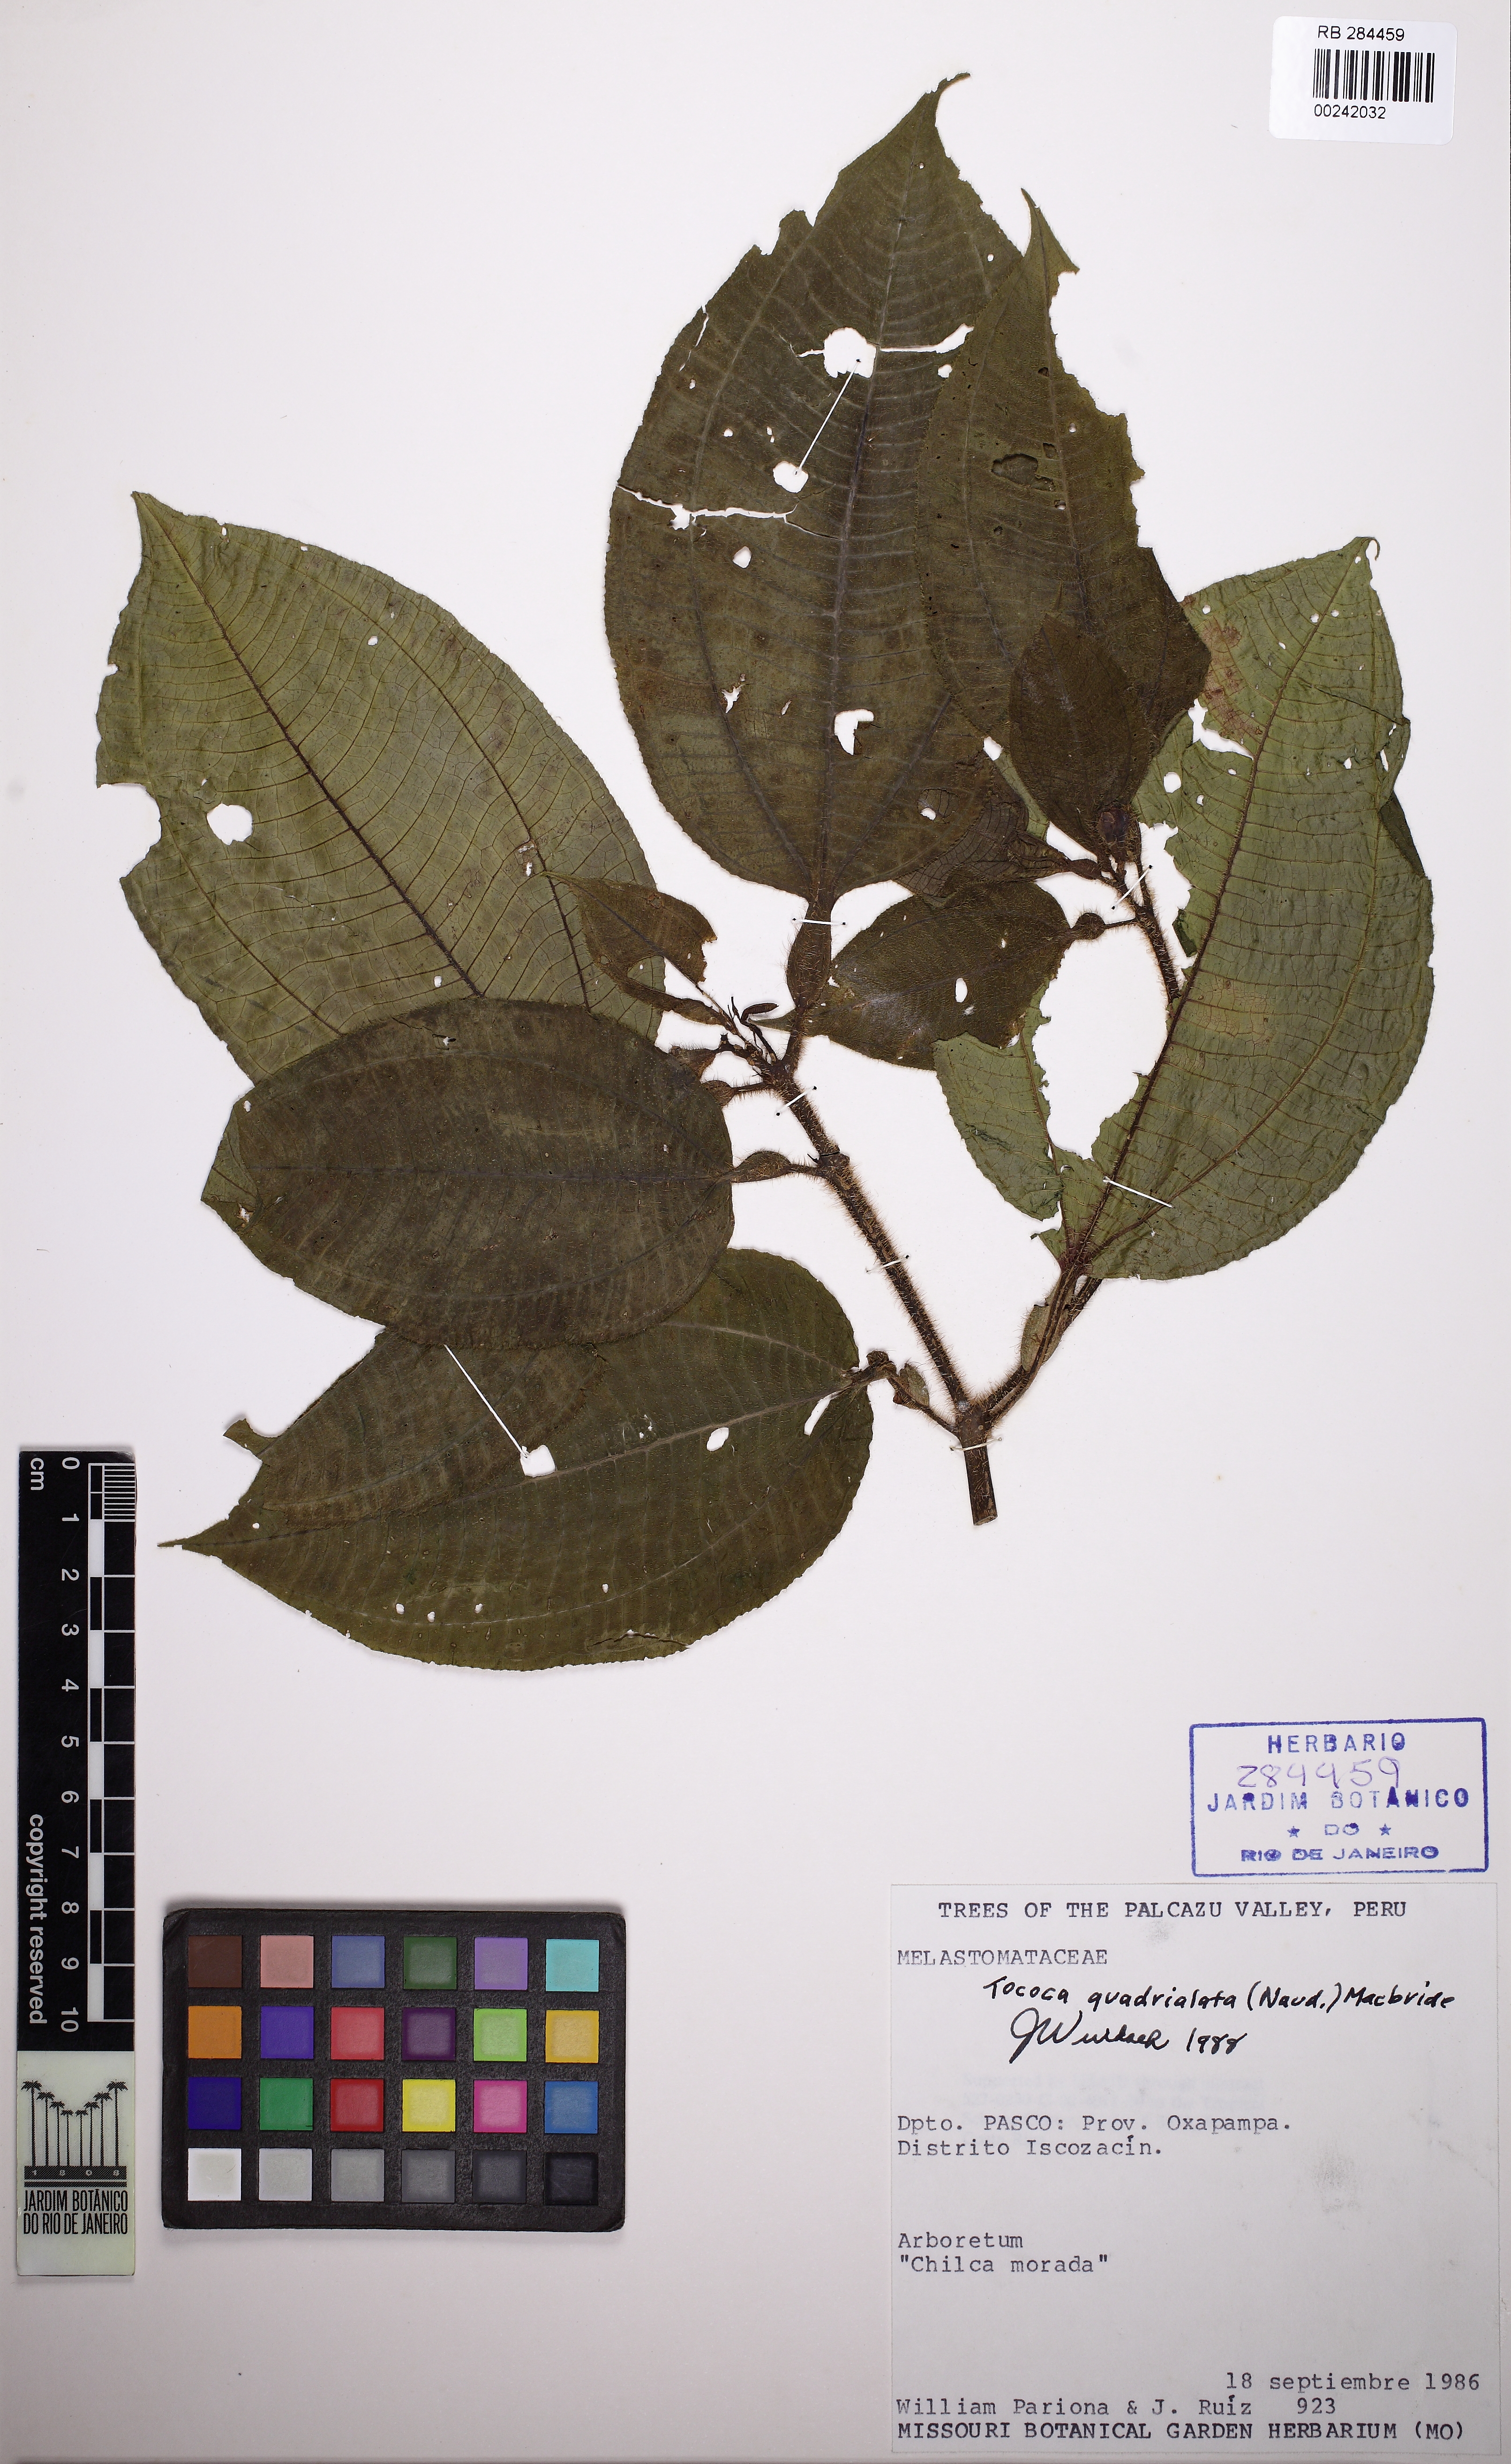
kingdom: Plantae
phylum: Tracheophyta
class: Magnoliopsida
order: Myrtales
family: Melastomataceae
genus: Miconia
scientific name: Miconia microphysca
